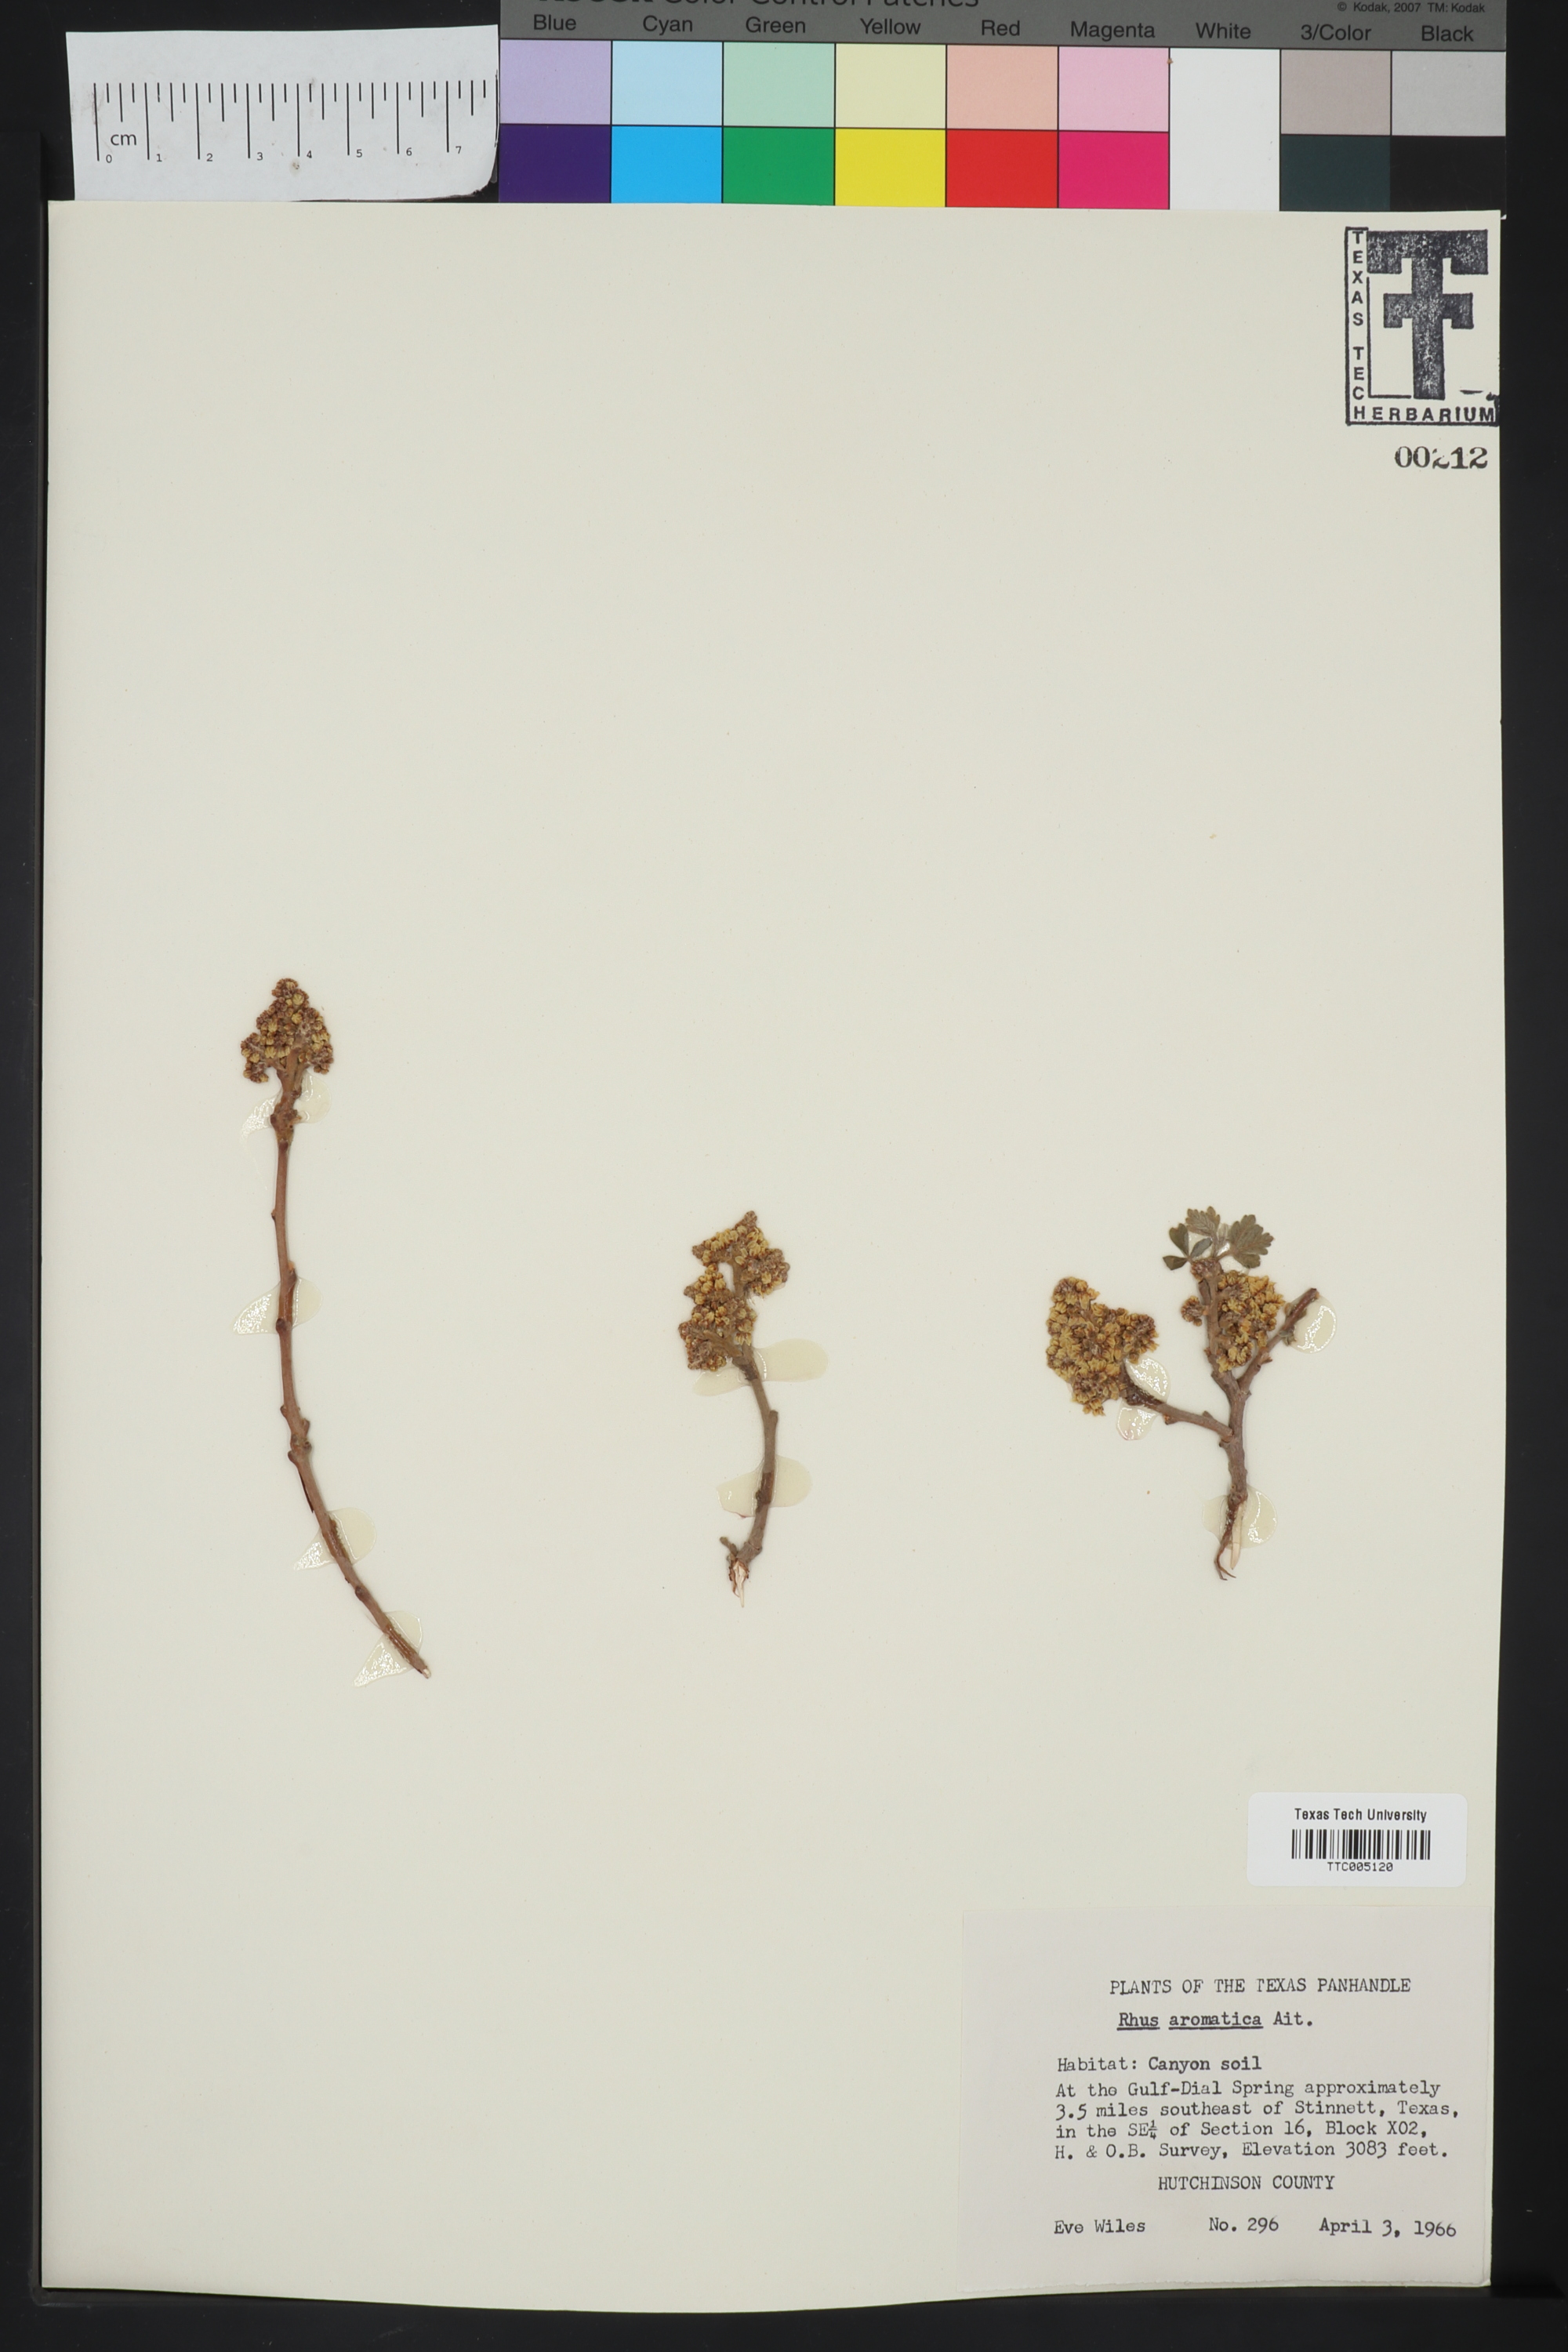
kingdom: Plantae
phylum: Tracheophyta
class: Magnoliopsida
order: Sapindales
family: Anacardiaceae
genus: Rhus
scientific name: Rhus aromatica
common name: Aromatic sumac
